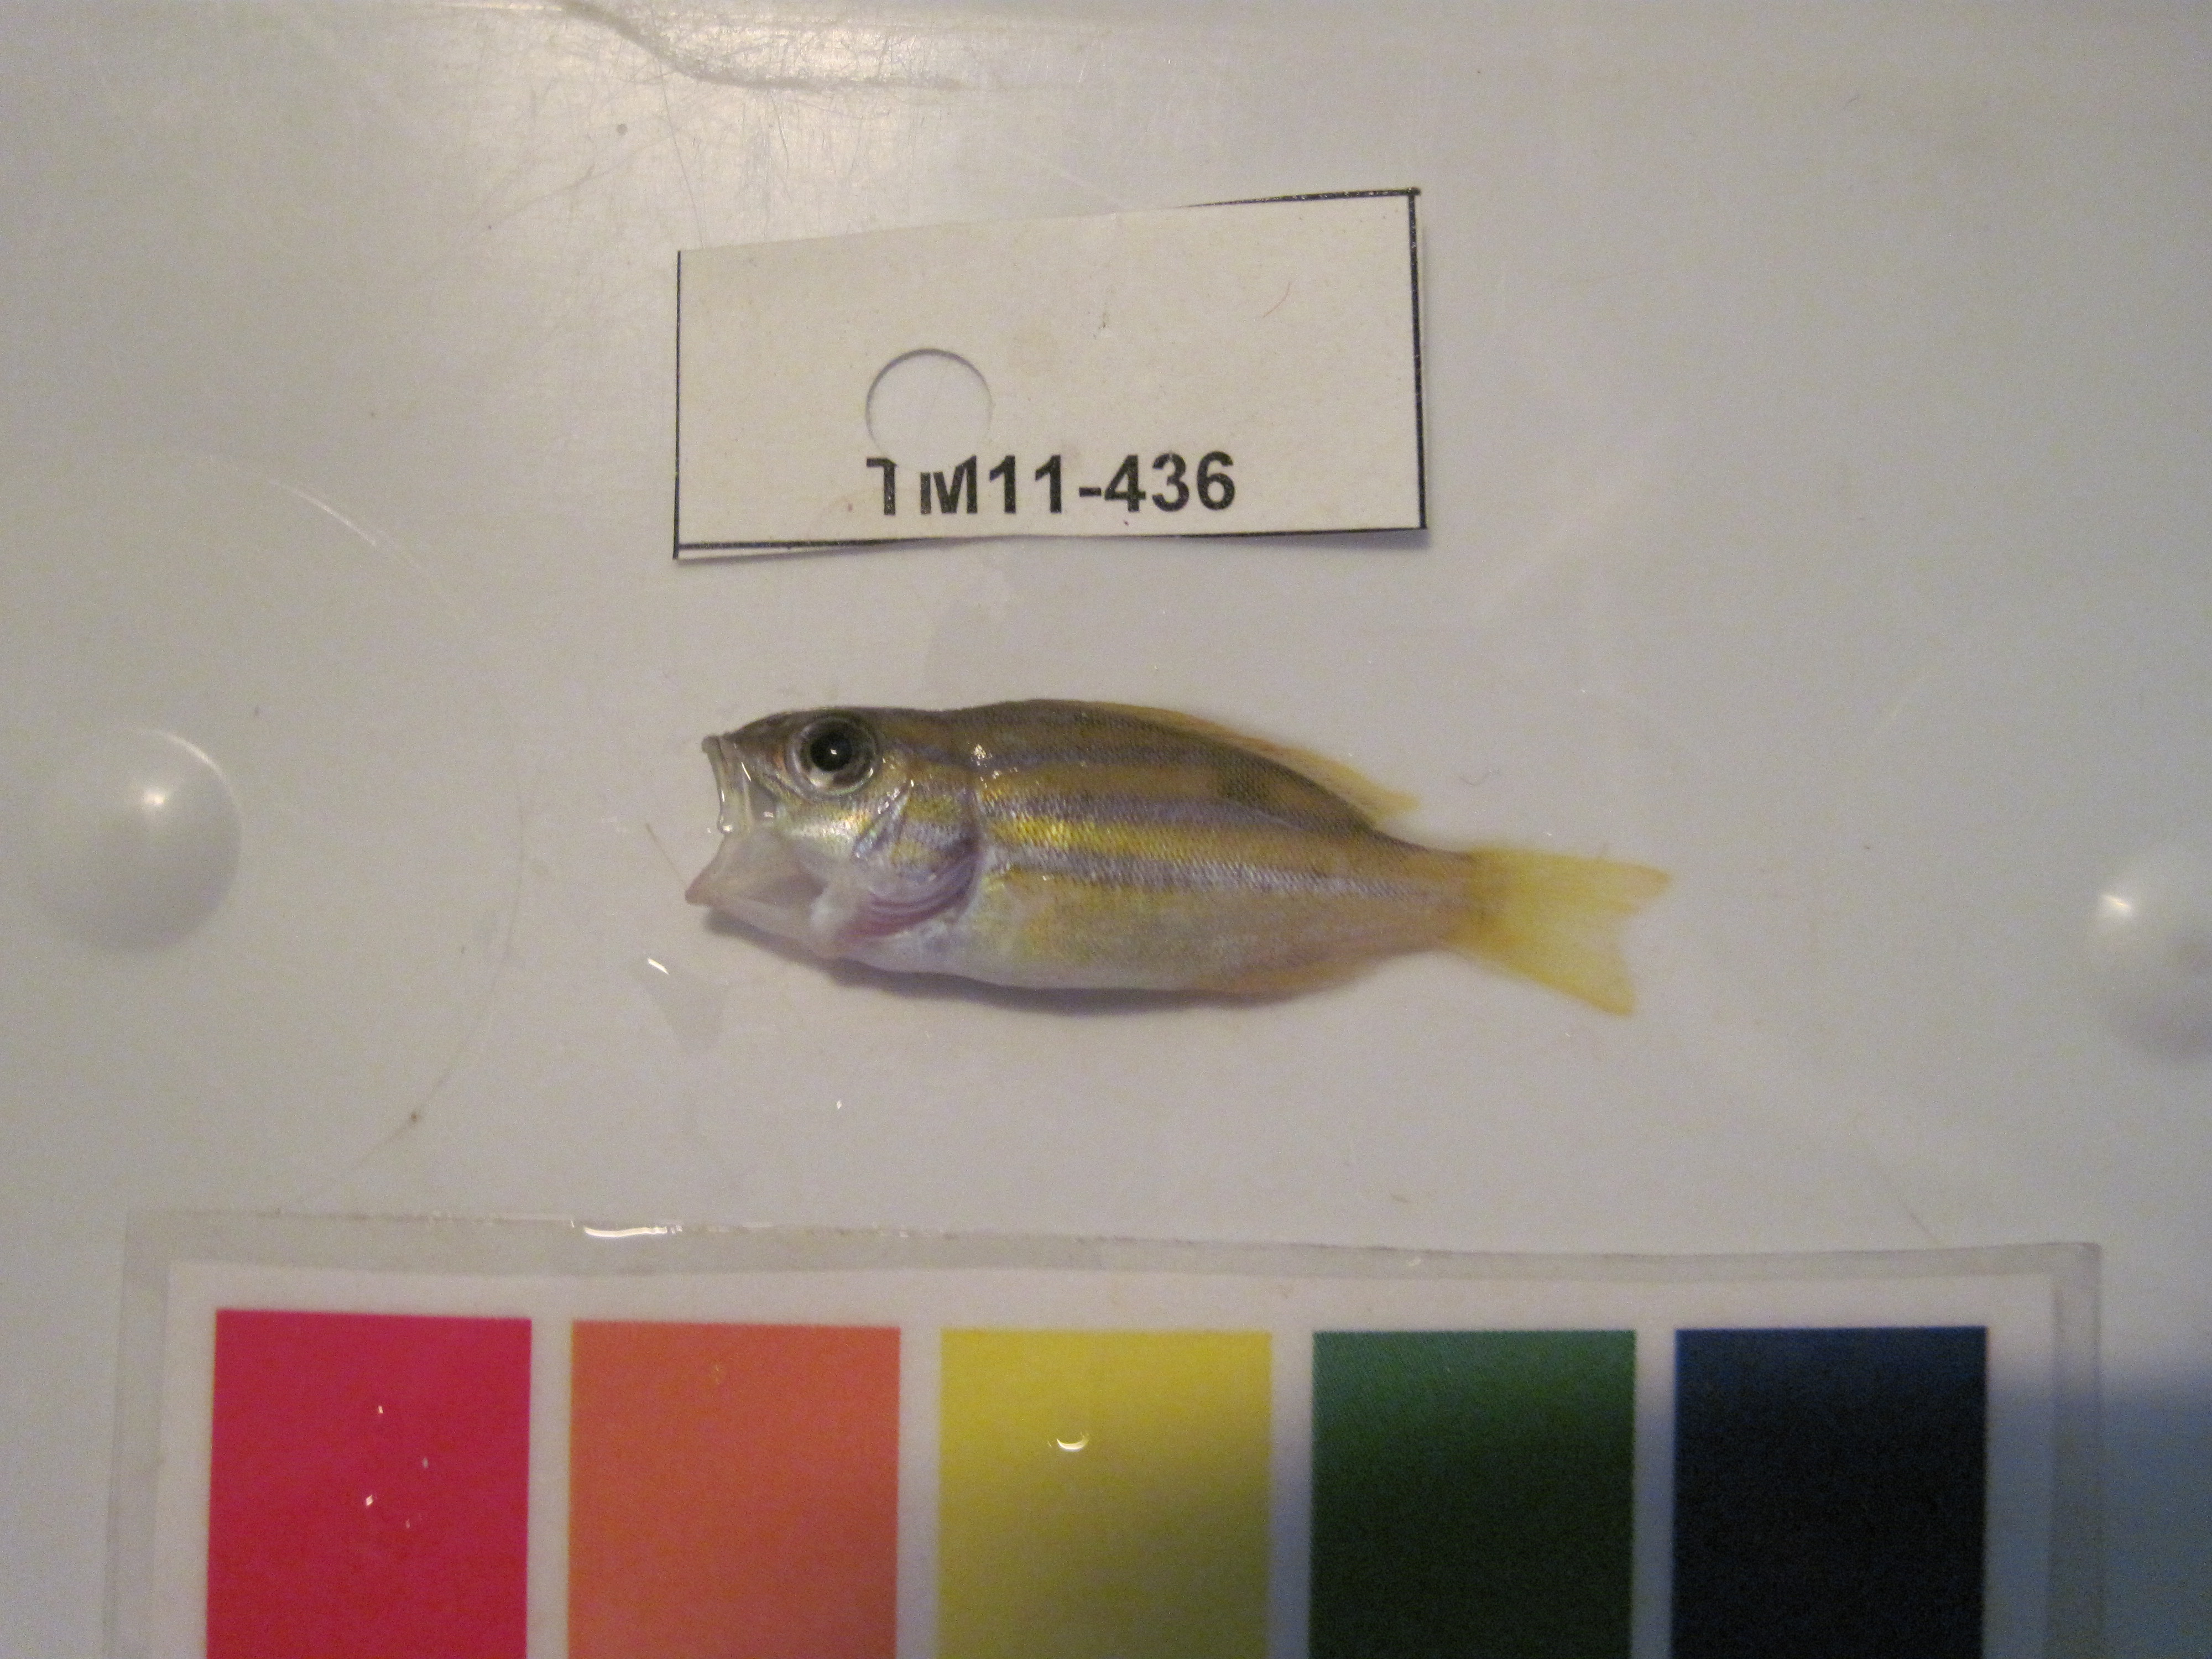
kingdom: Animalia
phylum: Chordata
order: Perciformes
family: Lutjanidae
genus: Lutjanus
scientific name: Lutjanus
